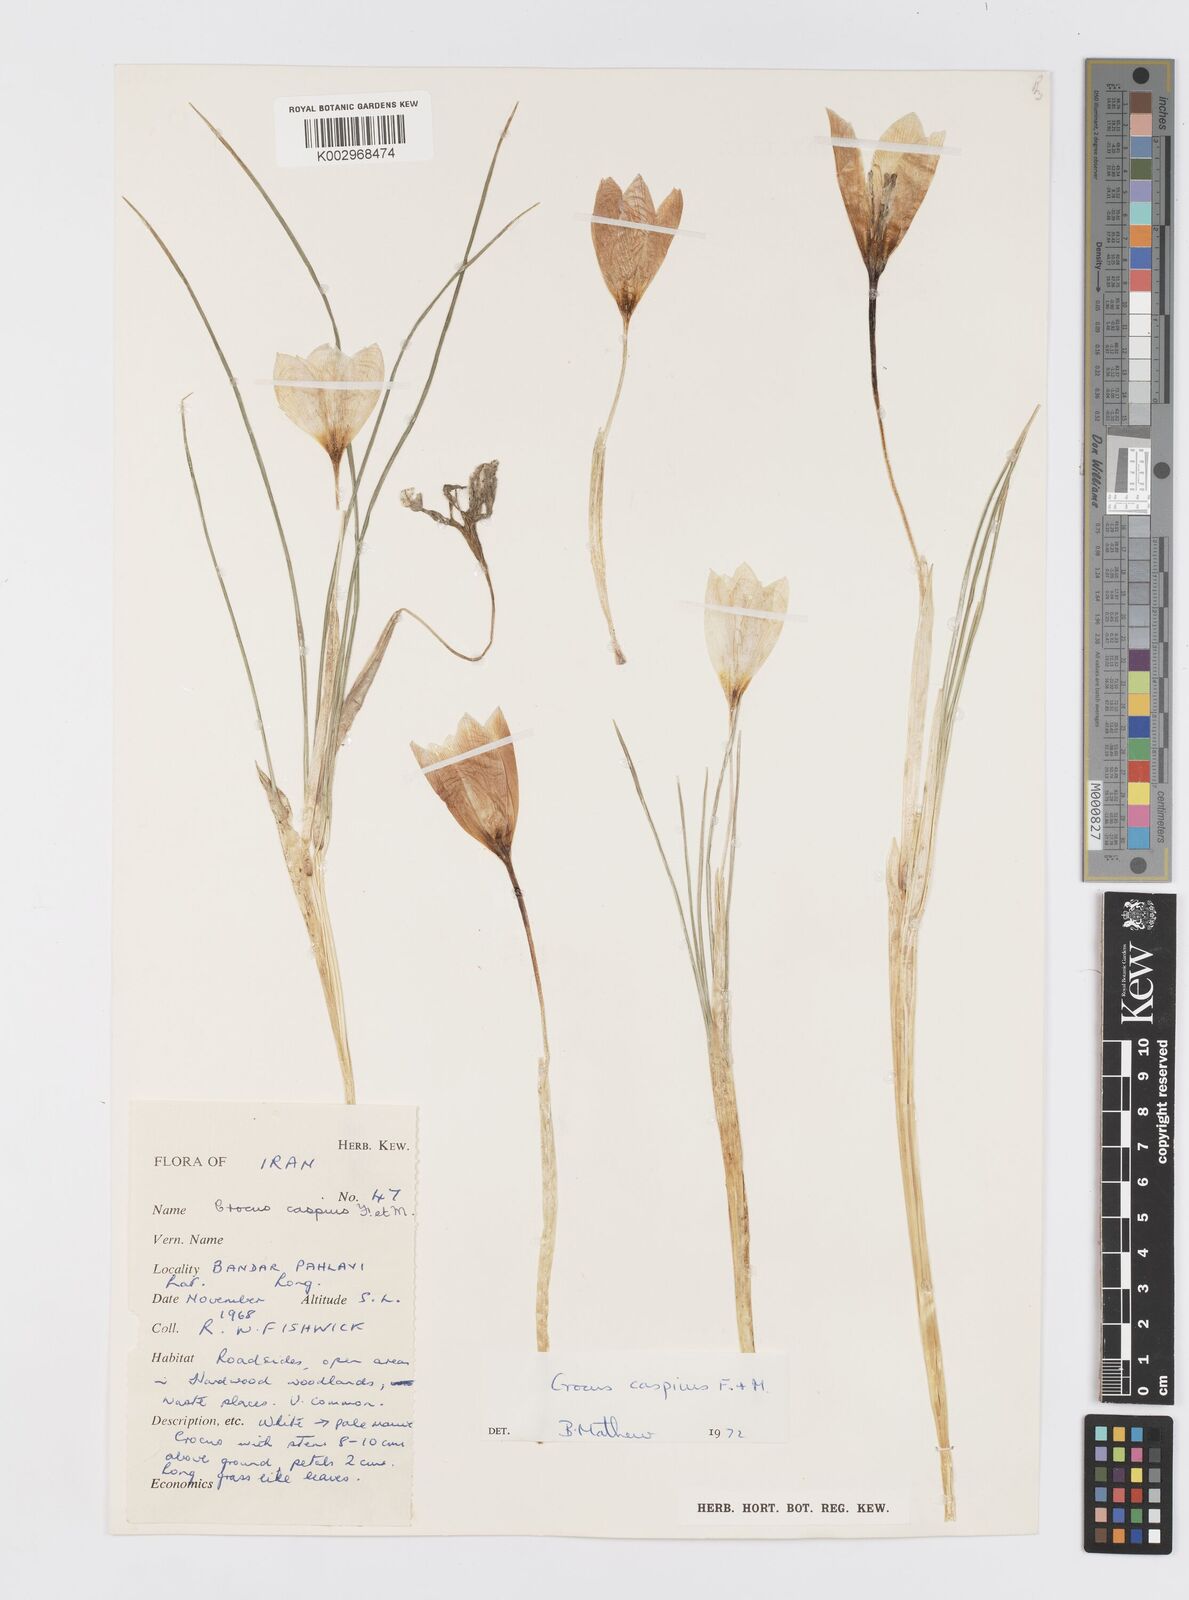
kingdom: Plantae
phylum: Tracheophyta
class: Liliopsida
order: Asparagales
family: Iridaceae
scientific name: Iridaceae
